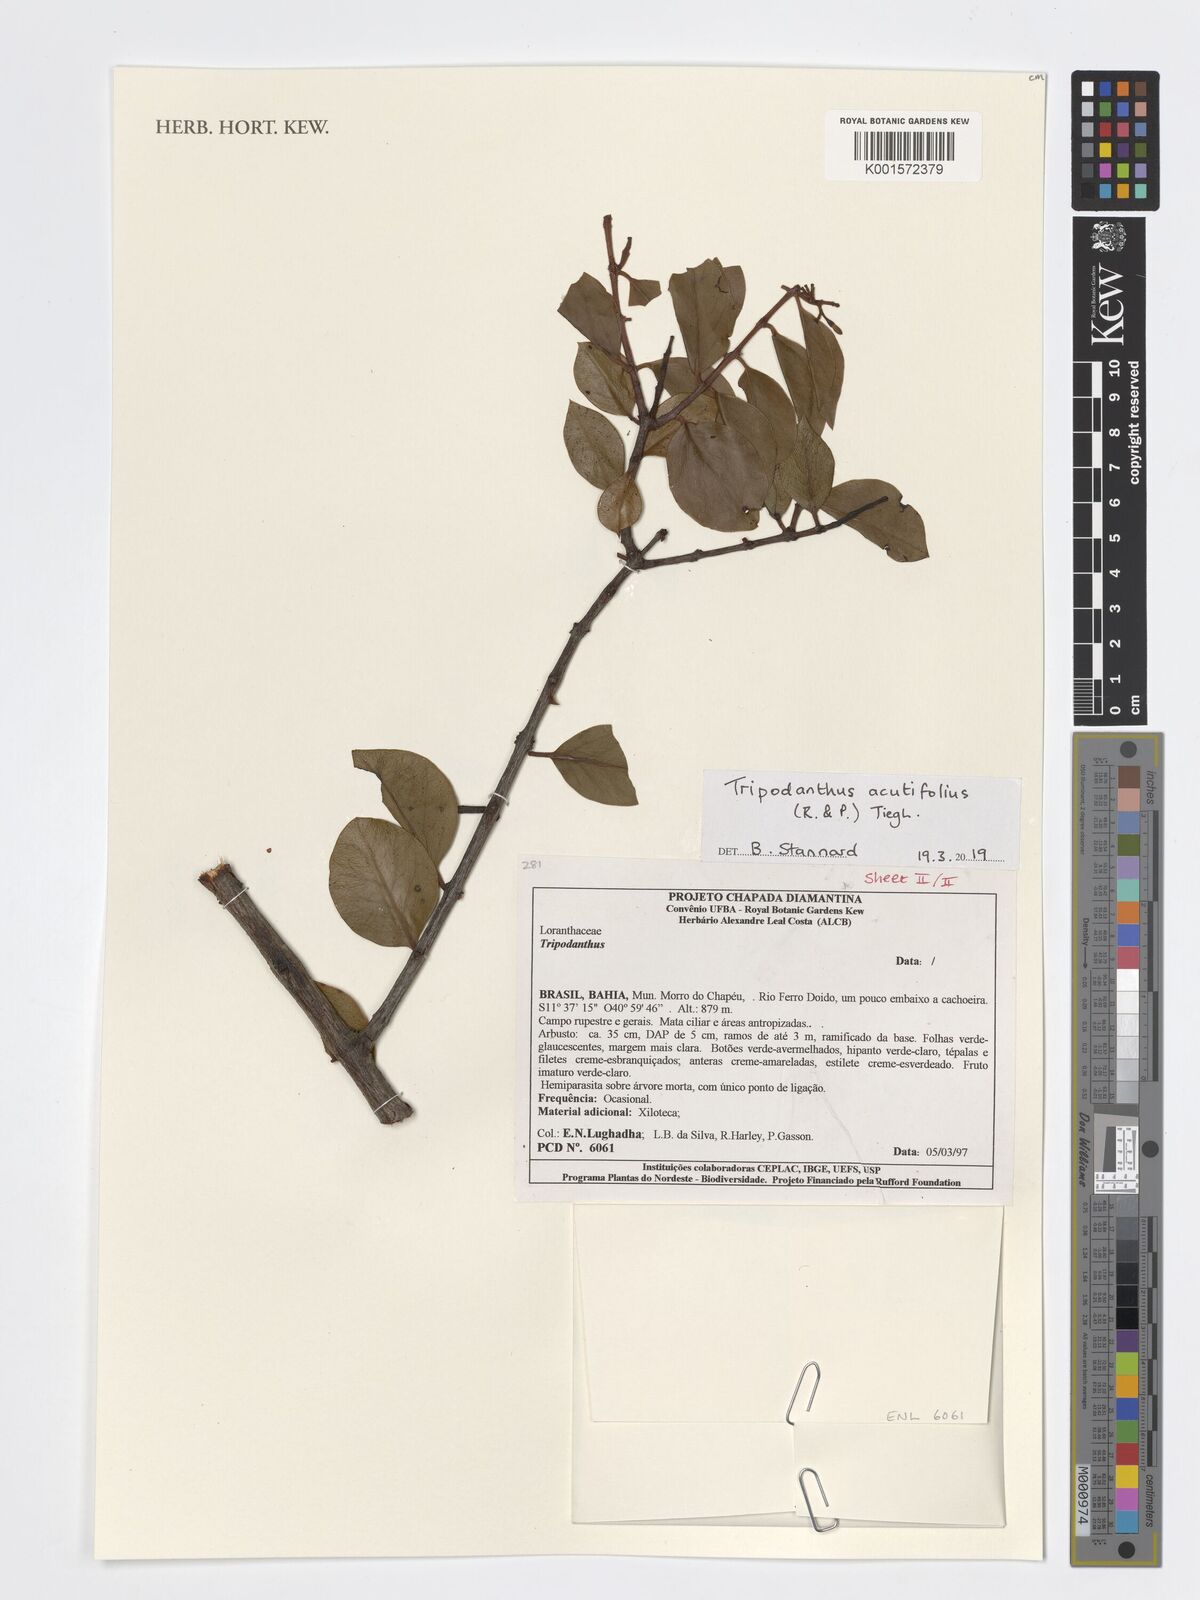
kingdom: Plantae
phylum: Tracheophyta
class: Magnoliopsida
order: Santalales
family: Loranthaceae
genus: Tripodanthus
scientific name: Tripodanthus acutifolius
